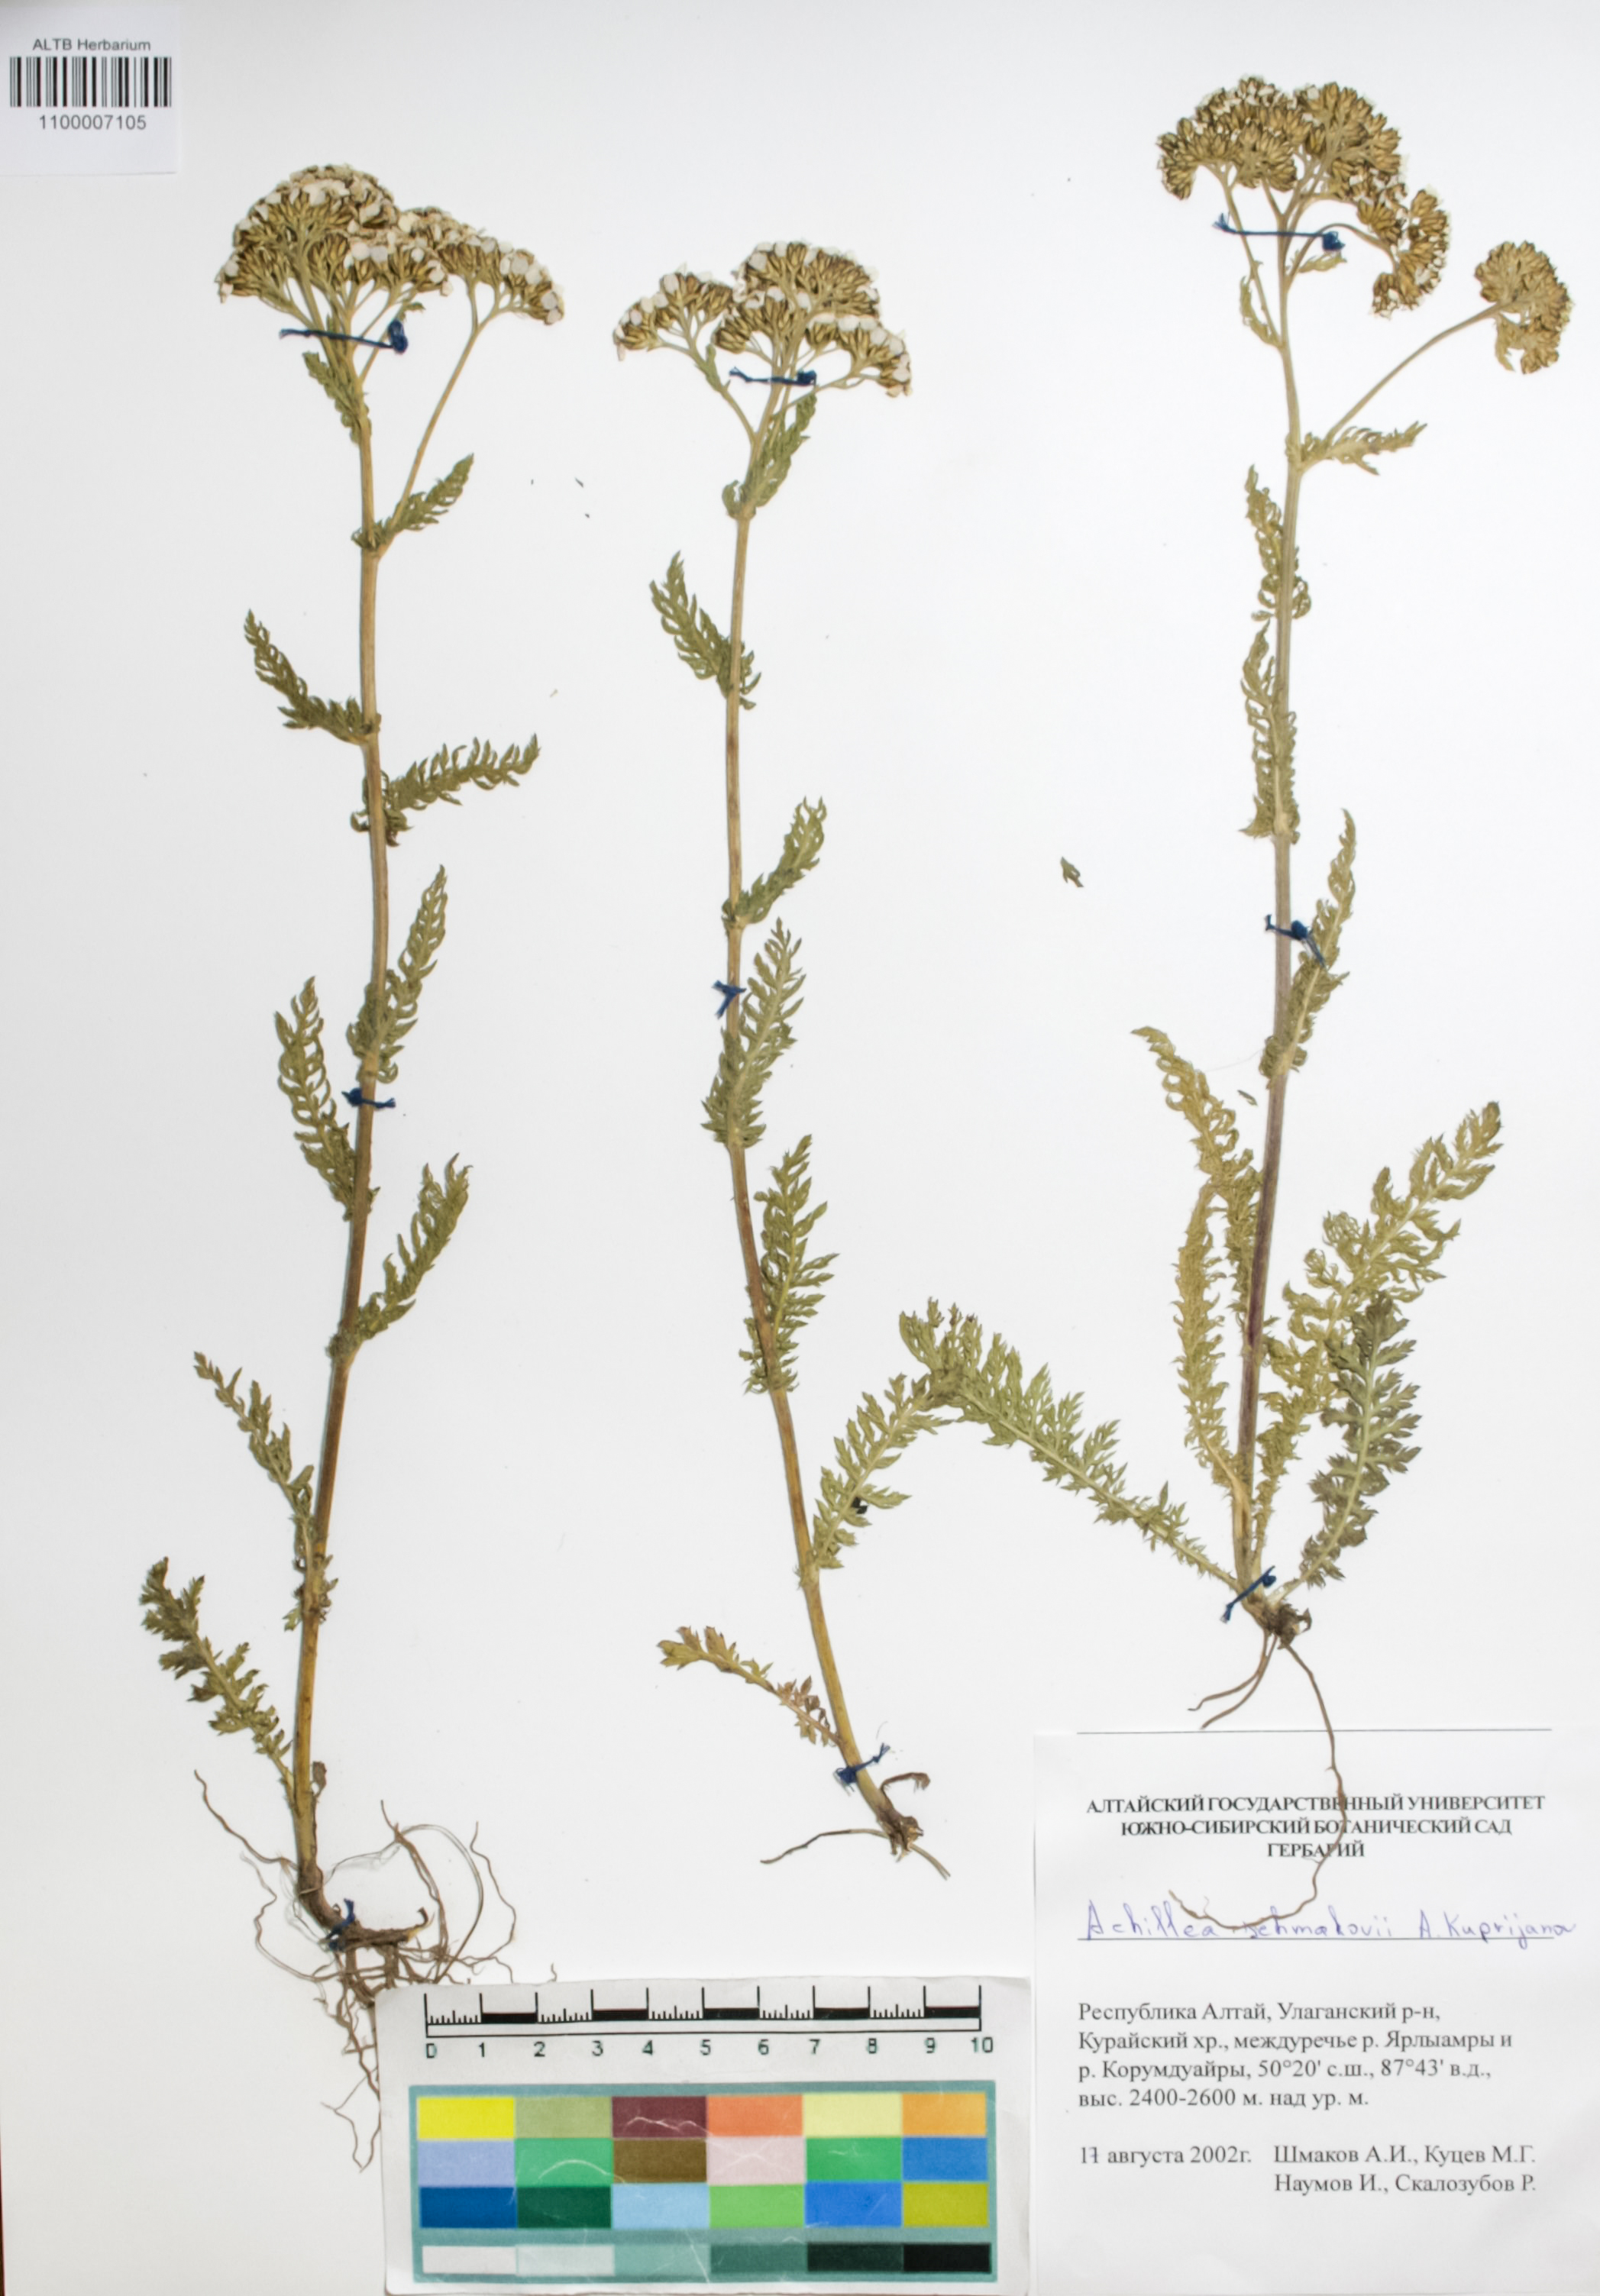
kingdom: Plantae
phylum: Tracheophyta
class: Magnoliopsida
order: Asterales
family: Asteraceae
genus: Achillea
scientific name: Achillea schmakovii
